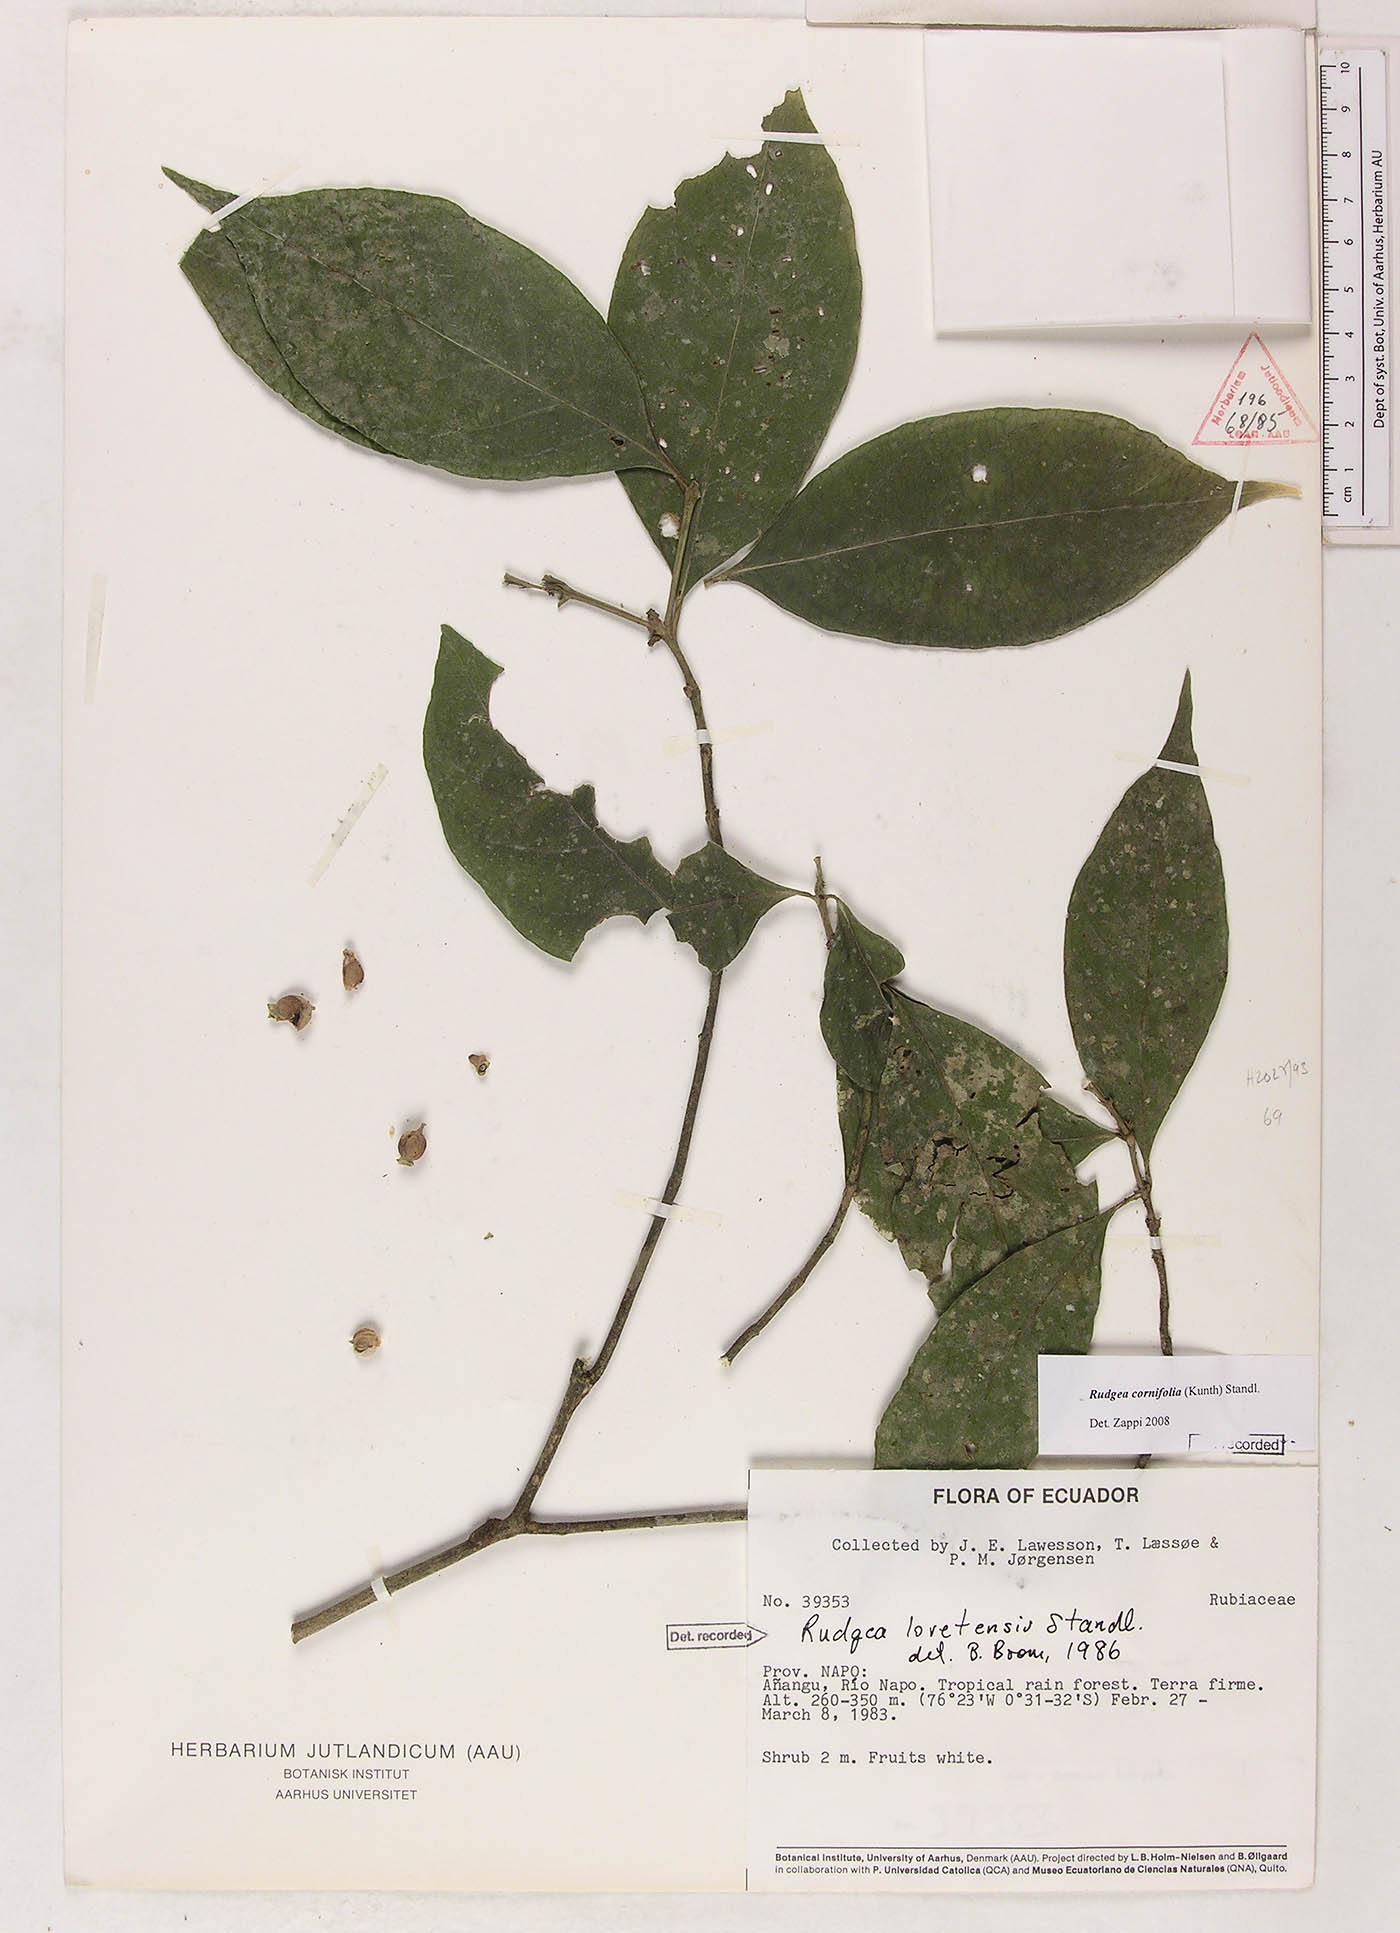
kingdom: Plantae
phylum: Tracheophyta
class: Magnoliopsida
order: Gentianales
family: Rubiaceae
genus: Rudgea
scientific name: Rudgea cornifolia
